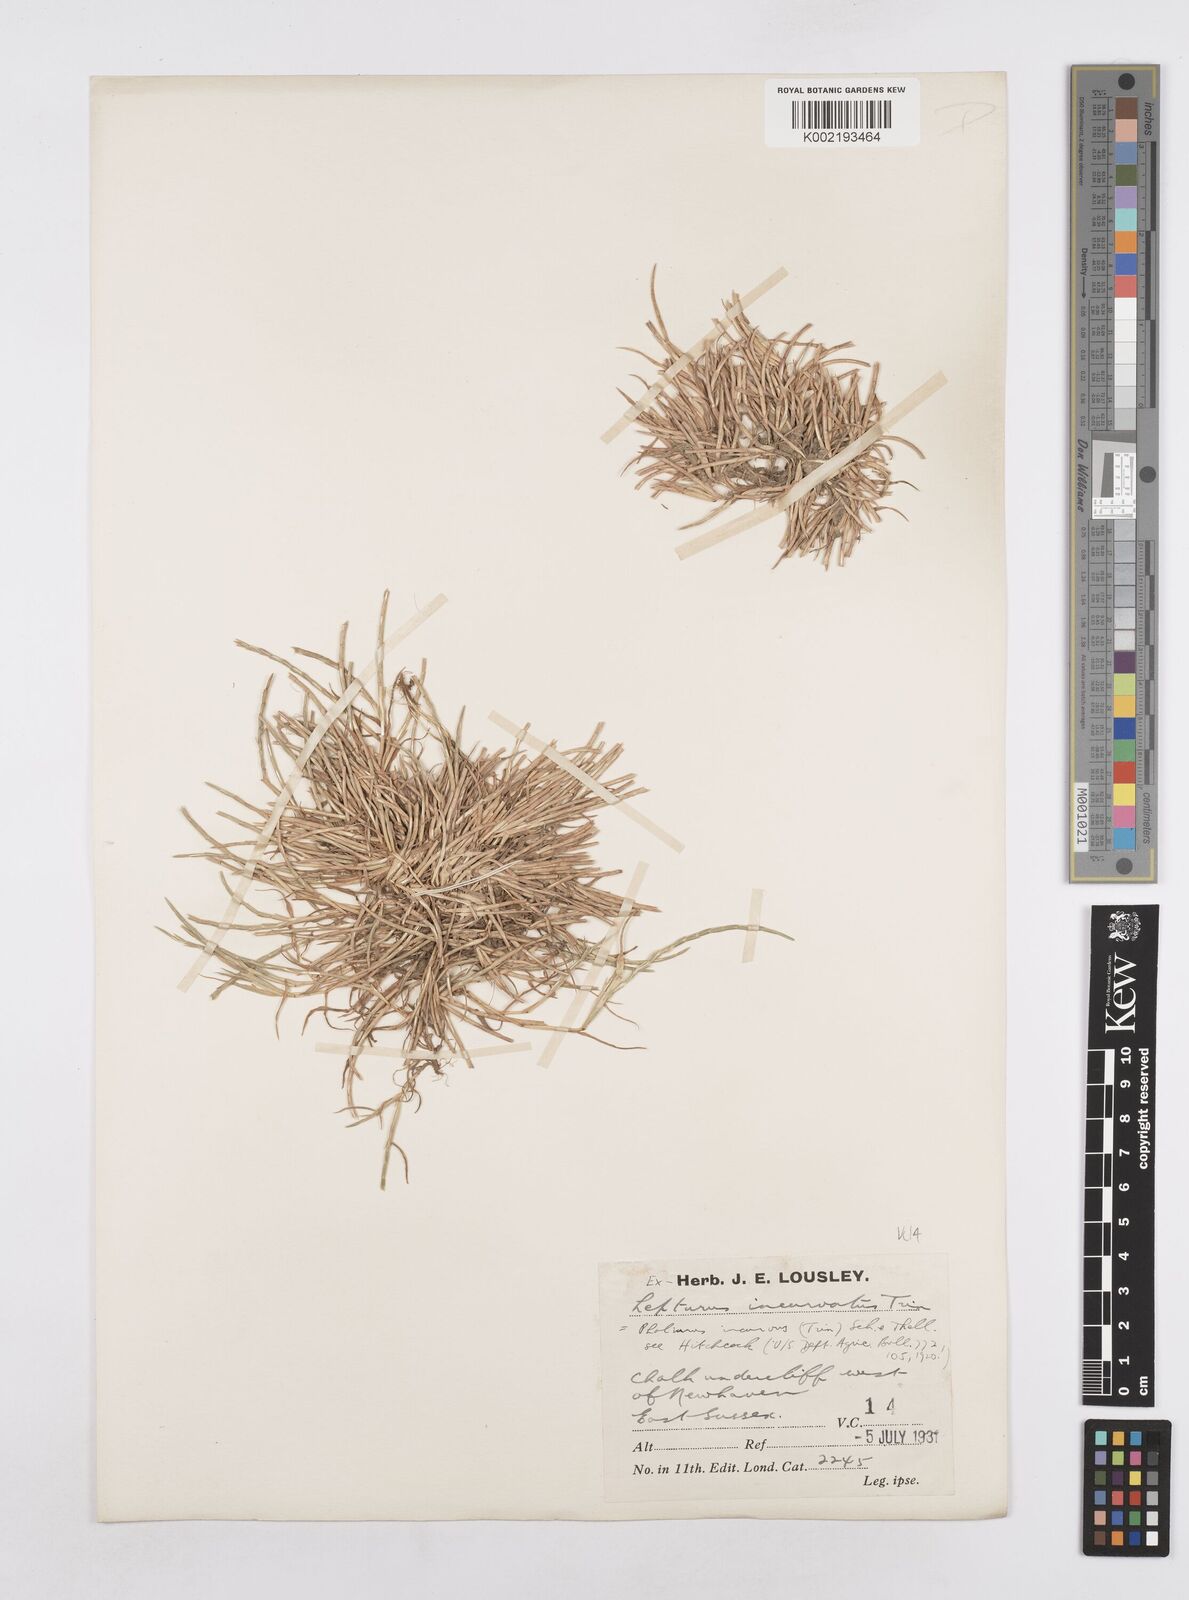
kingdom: Plantae
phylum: Tracheophyta
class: Liliopsida
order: Poales
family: Poaceae
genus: Parapholis
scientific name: Parapholis incurva
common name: Curved sicklegrass
